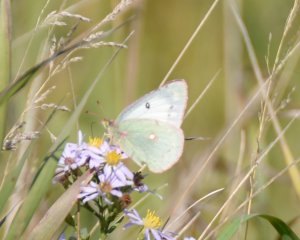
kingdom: Animalia
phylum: Arthropoda
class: Insecta
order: Lepidoptera
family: Pieridae
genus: Colias
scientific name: Colias philodice
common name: Clouded Sulphur
